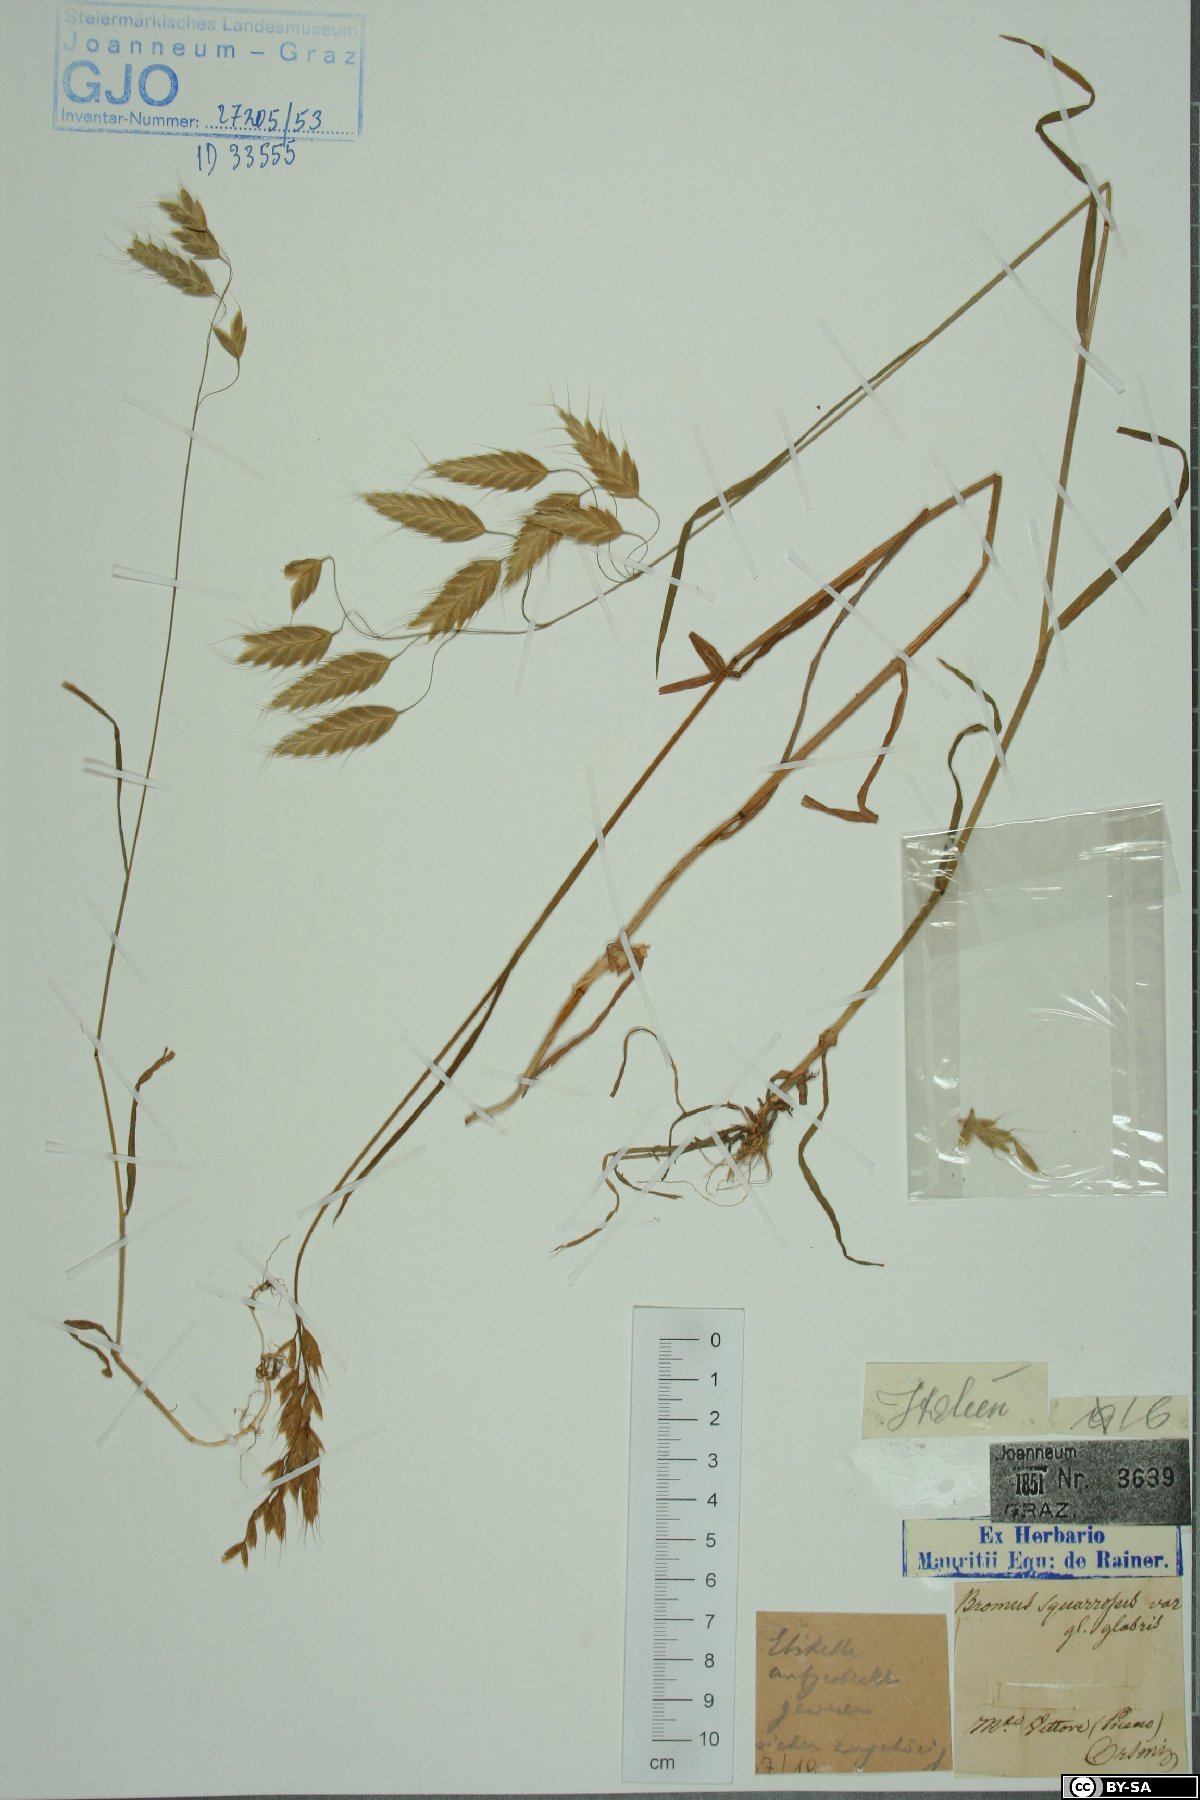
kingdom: Plantae
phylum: Tracheophyta
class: Liliopsida
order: Poales
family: Poaceae
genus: Bromus
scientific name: Bromus squarrosus
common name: Corn brome
